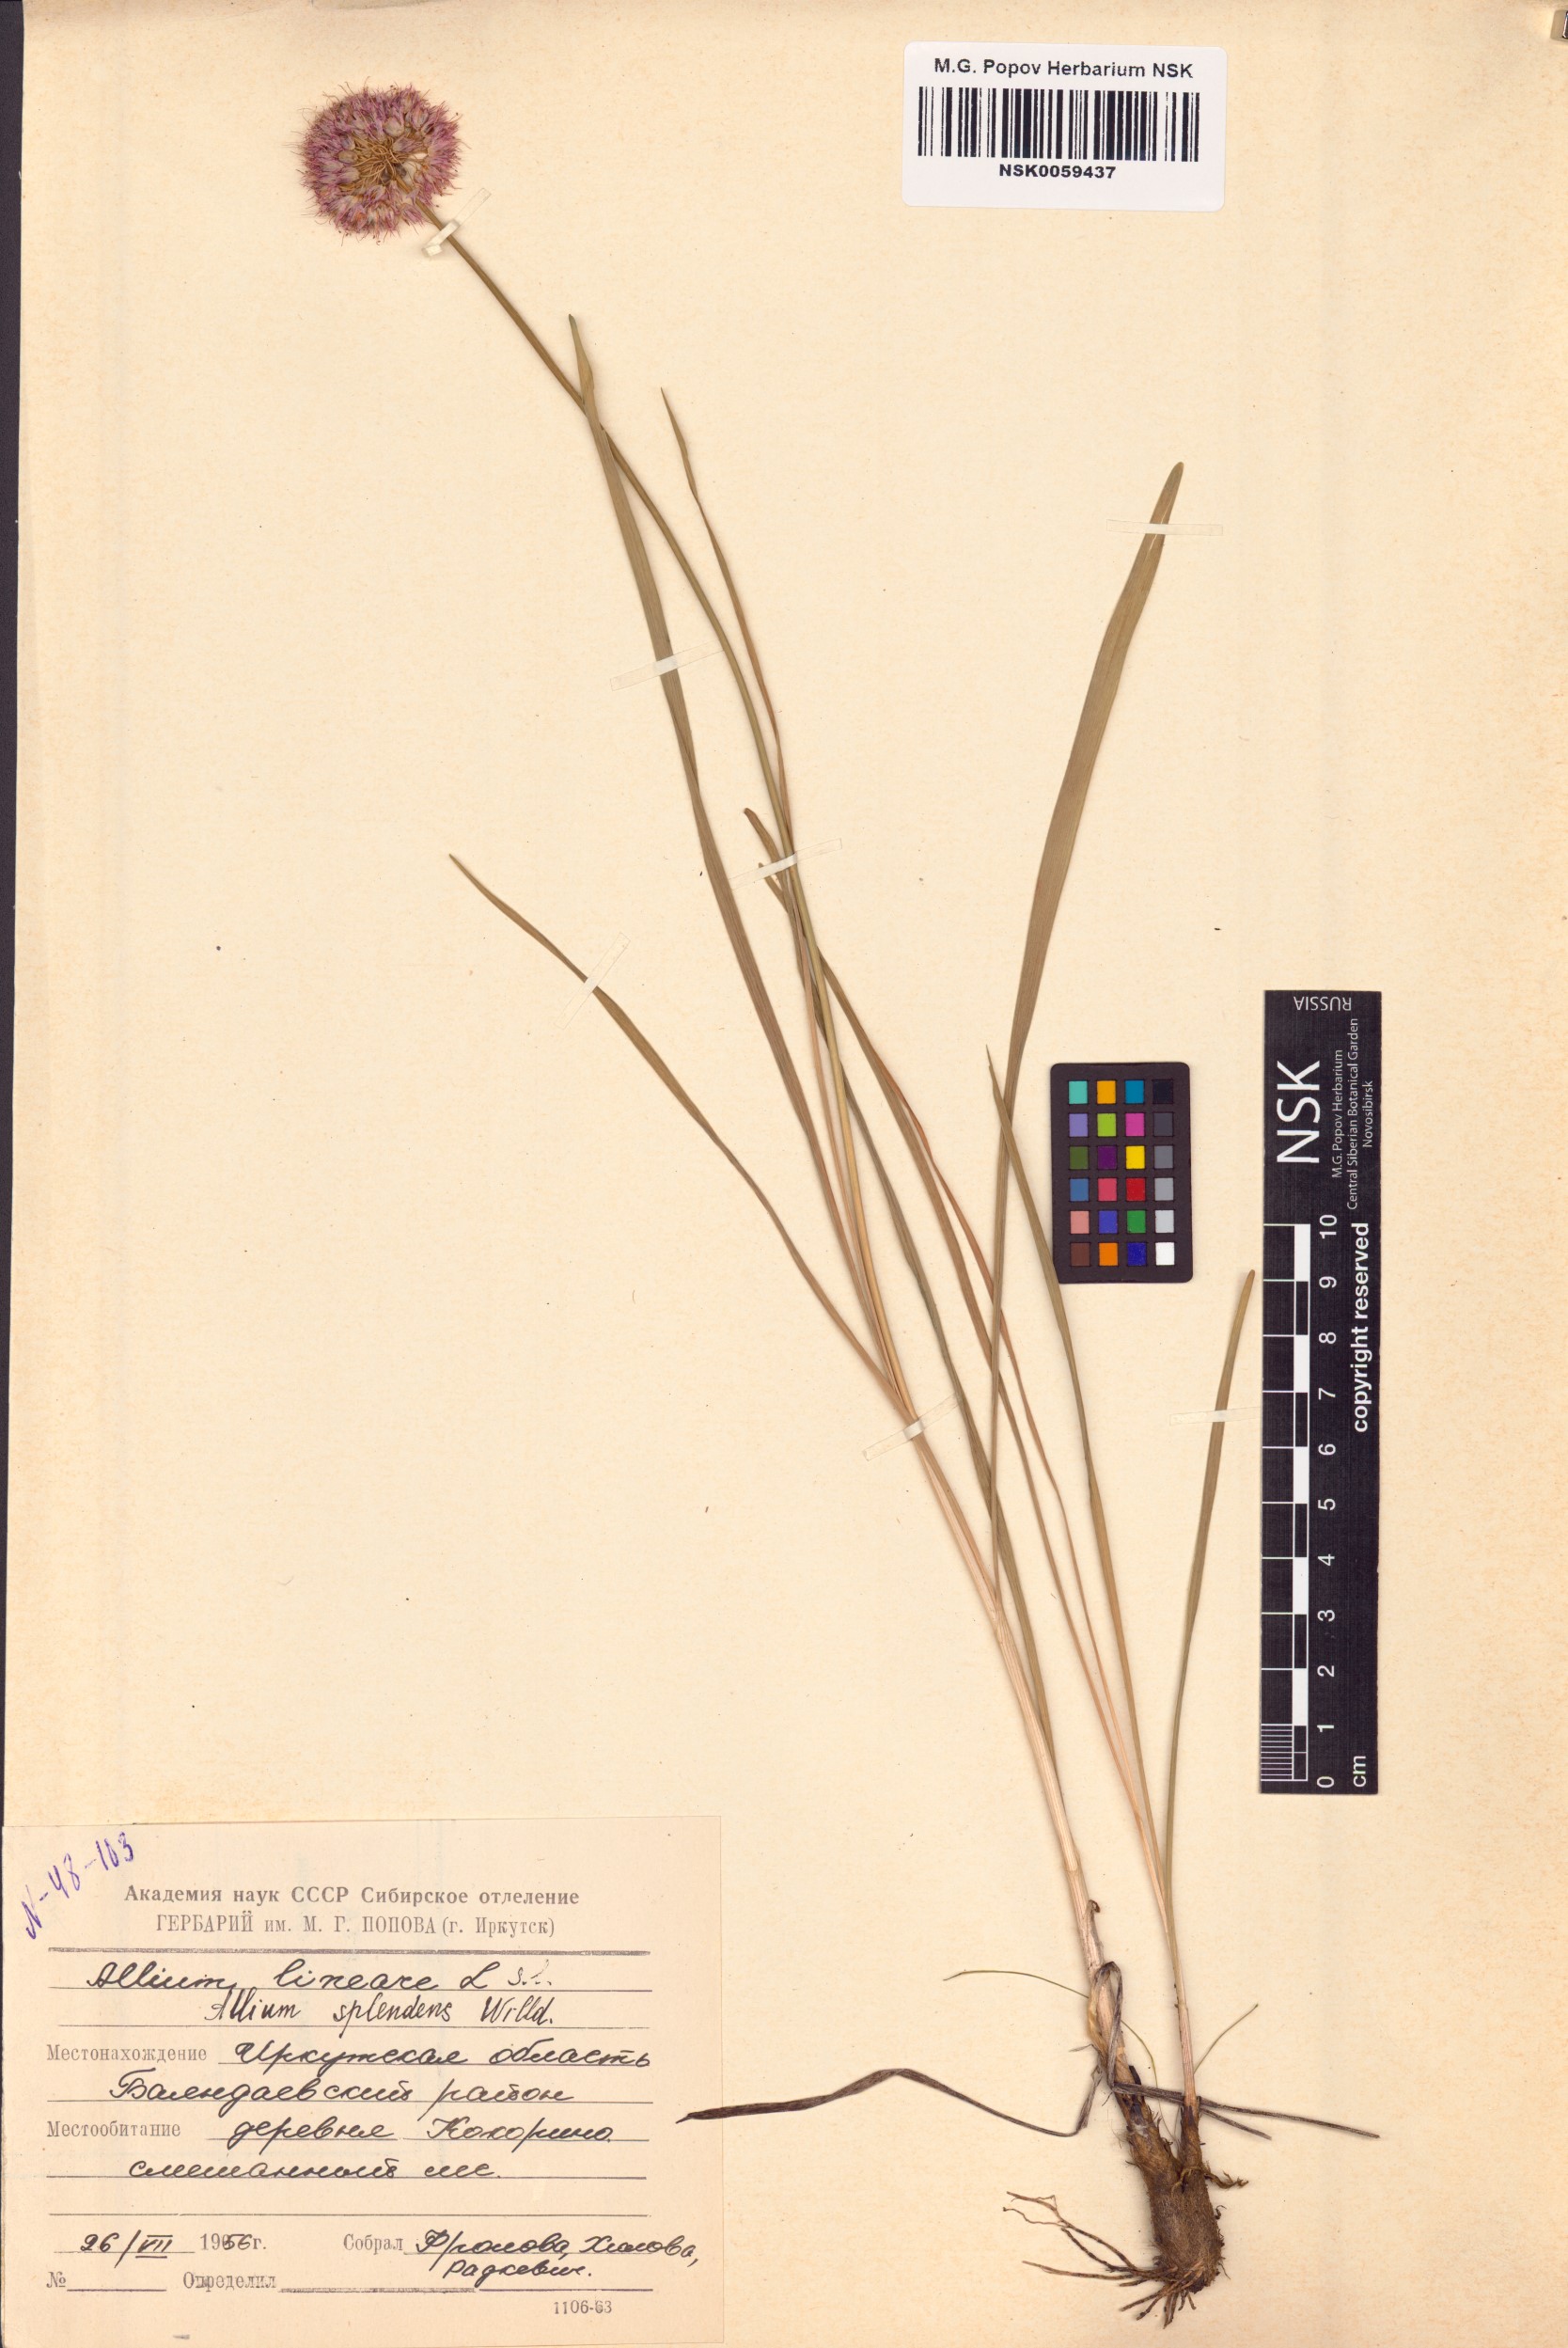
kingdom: Plantae
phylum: Tracheophyta
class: Liliopsida
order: Asparagales
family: Amaryllidaceae
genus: Allium
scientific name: Allium splendens
